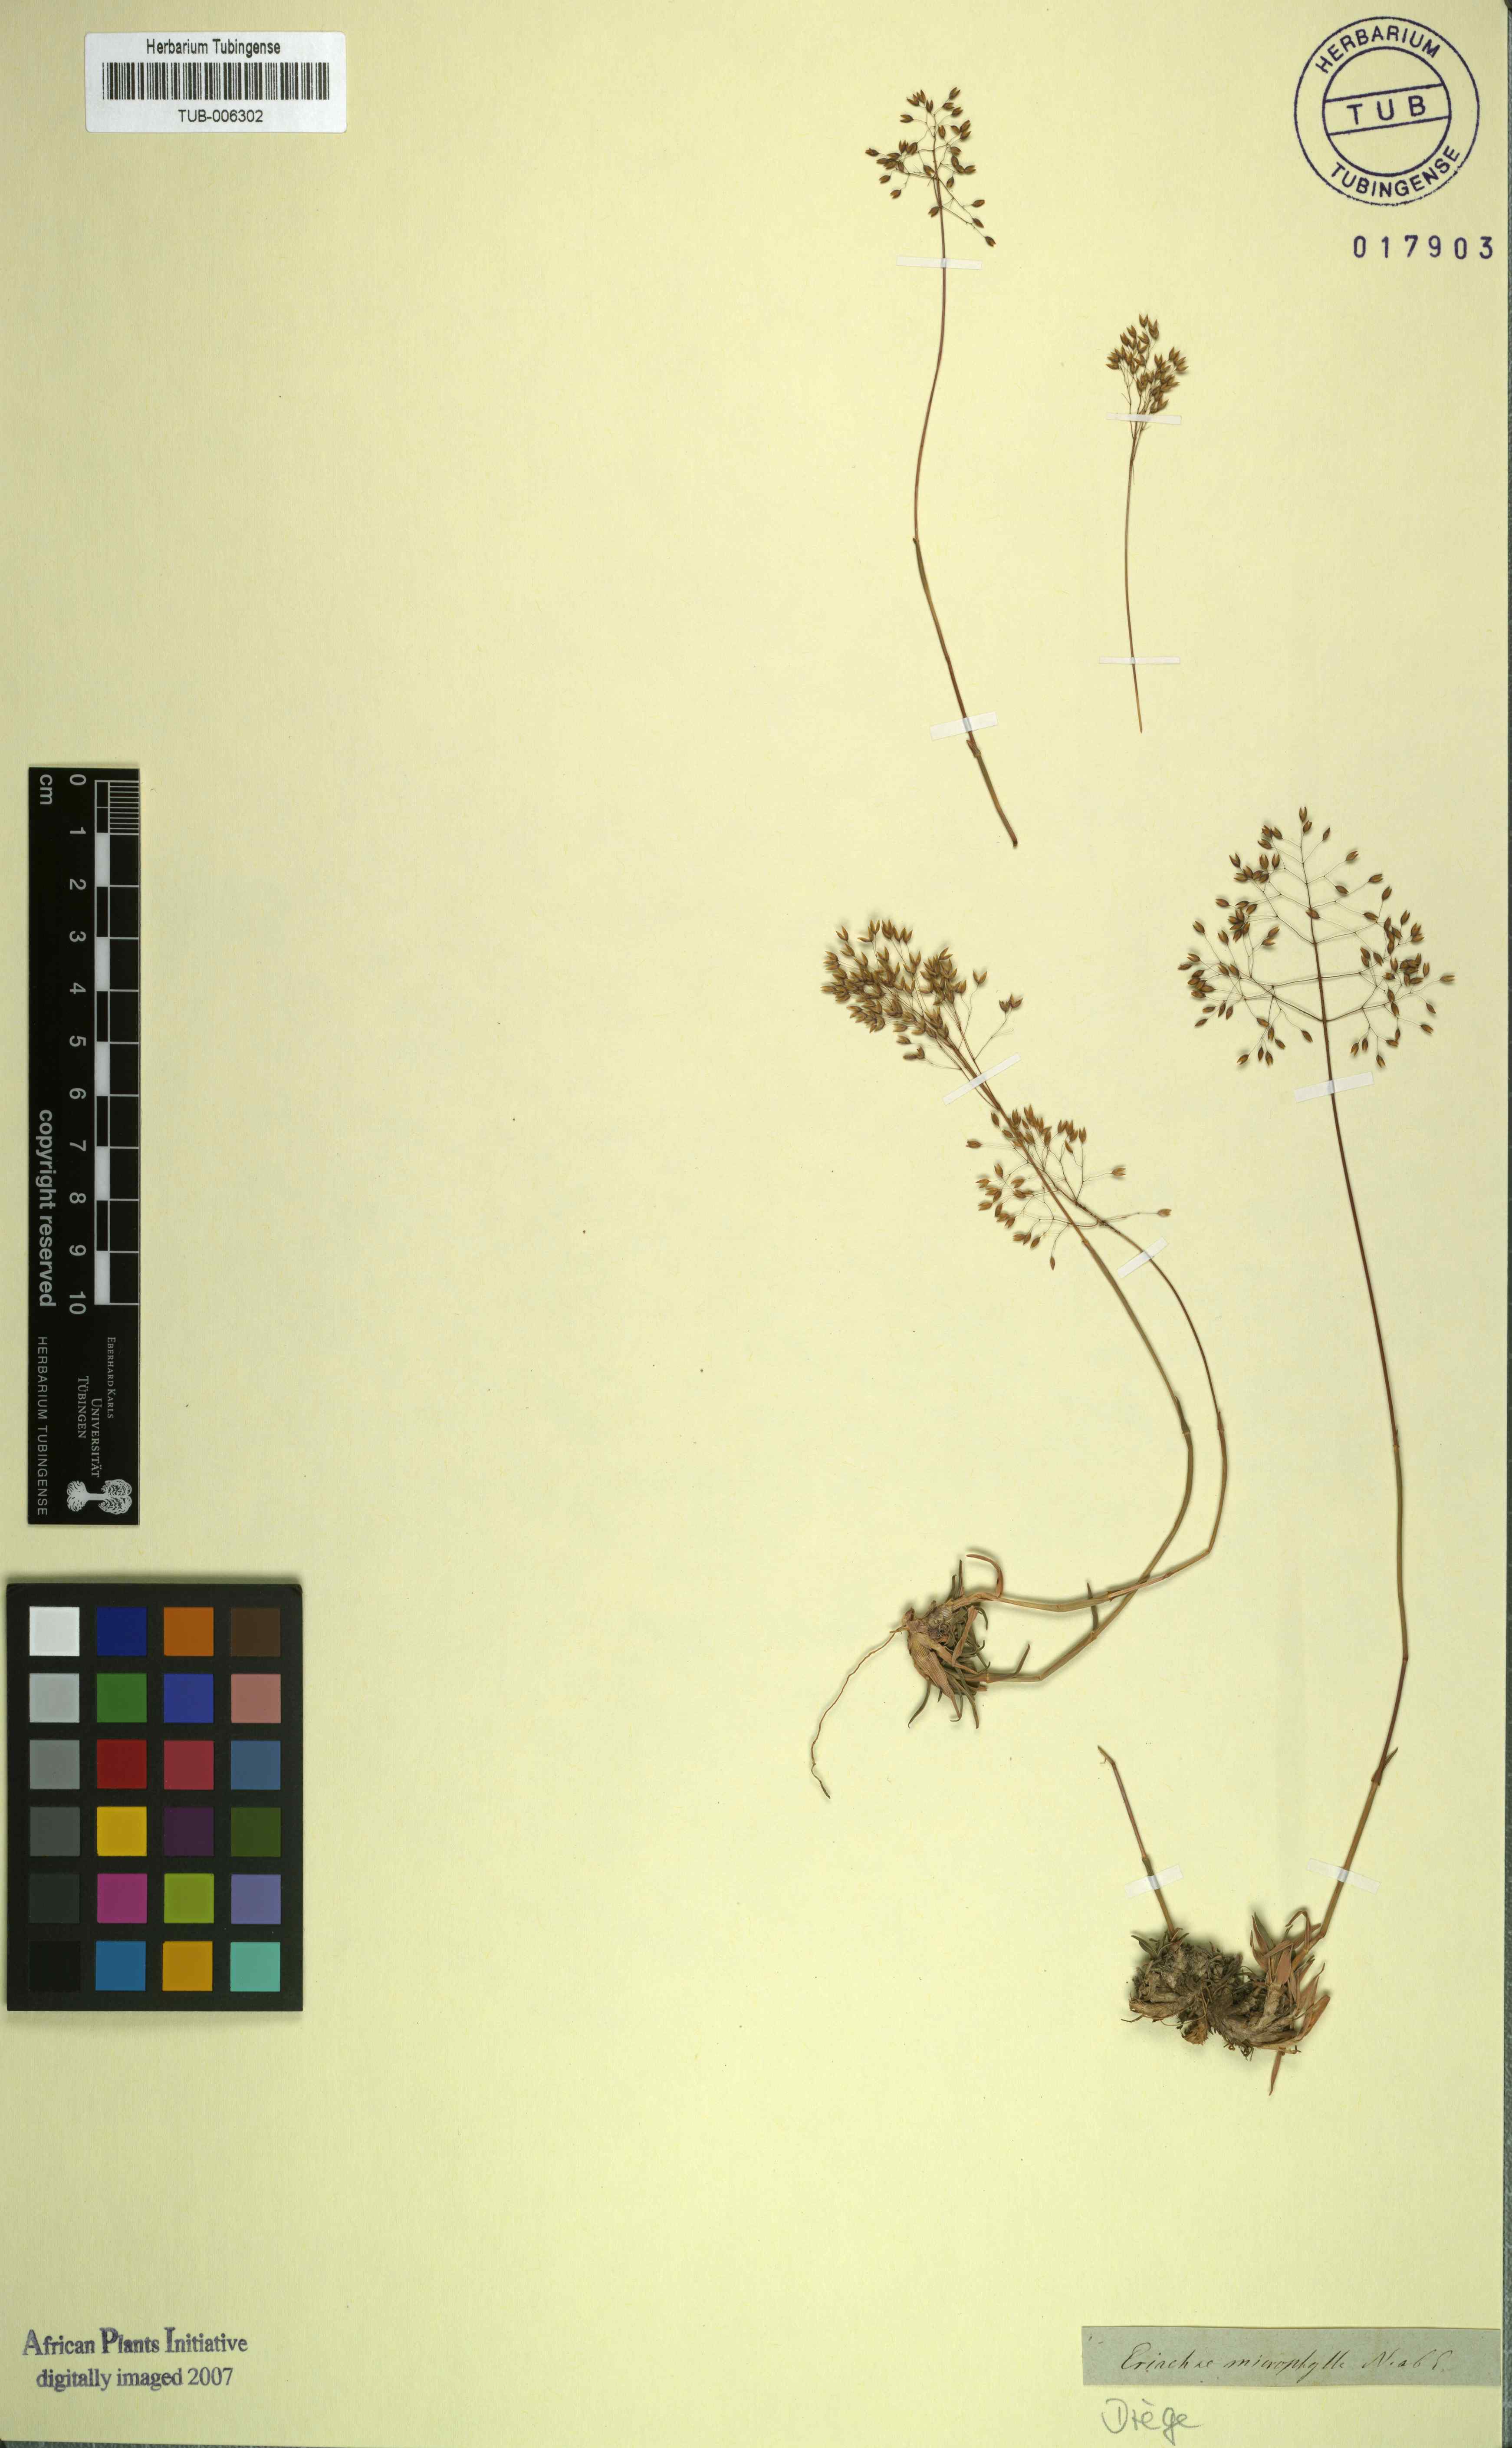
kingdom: Plantae
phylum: Tracheophyta
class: Liliopsida
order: Poales
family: Poaceae
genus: Pentameris
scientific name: Pentameris microphylla
